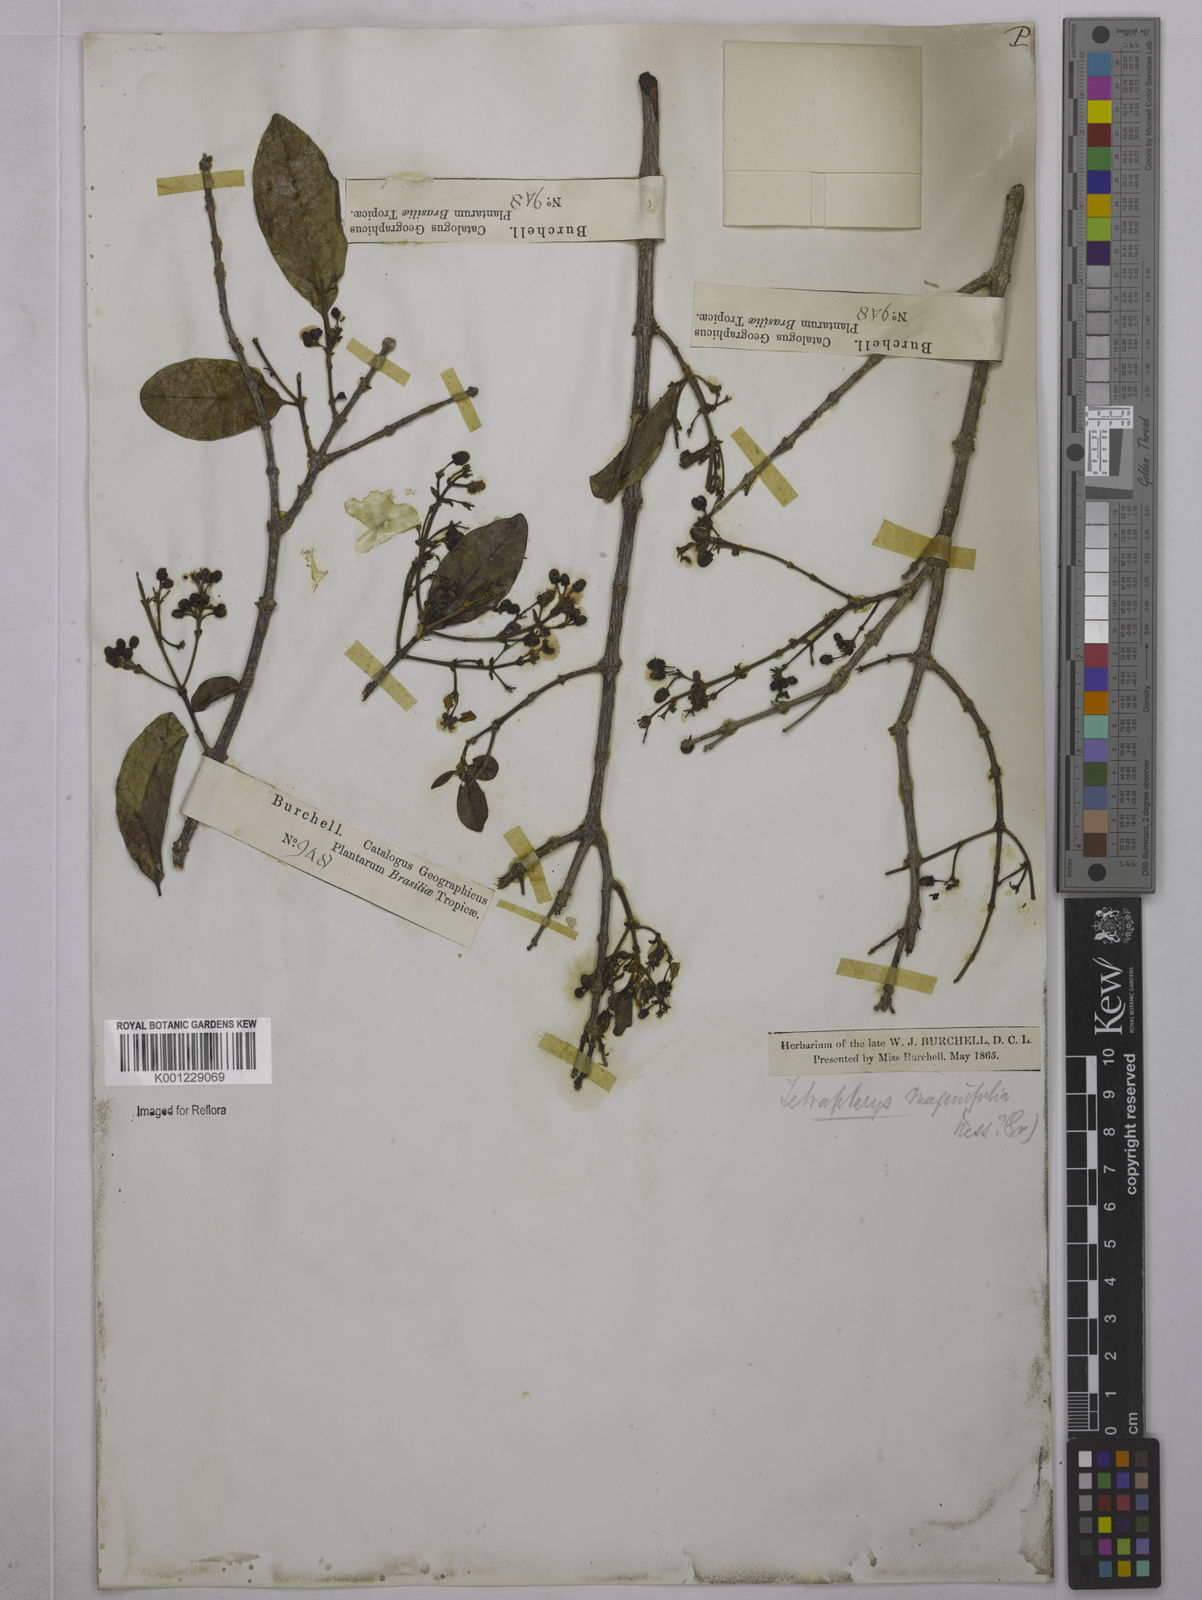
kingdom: Plantae
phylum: Tracheophyta
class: Magnoliopsida
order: Malpighiales
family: Malpighiaceae
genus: Niedenzuella
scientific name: Niedenzuella mogoriifolia
